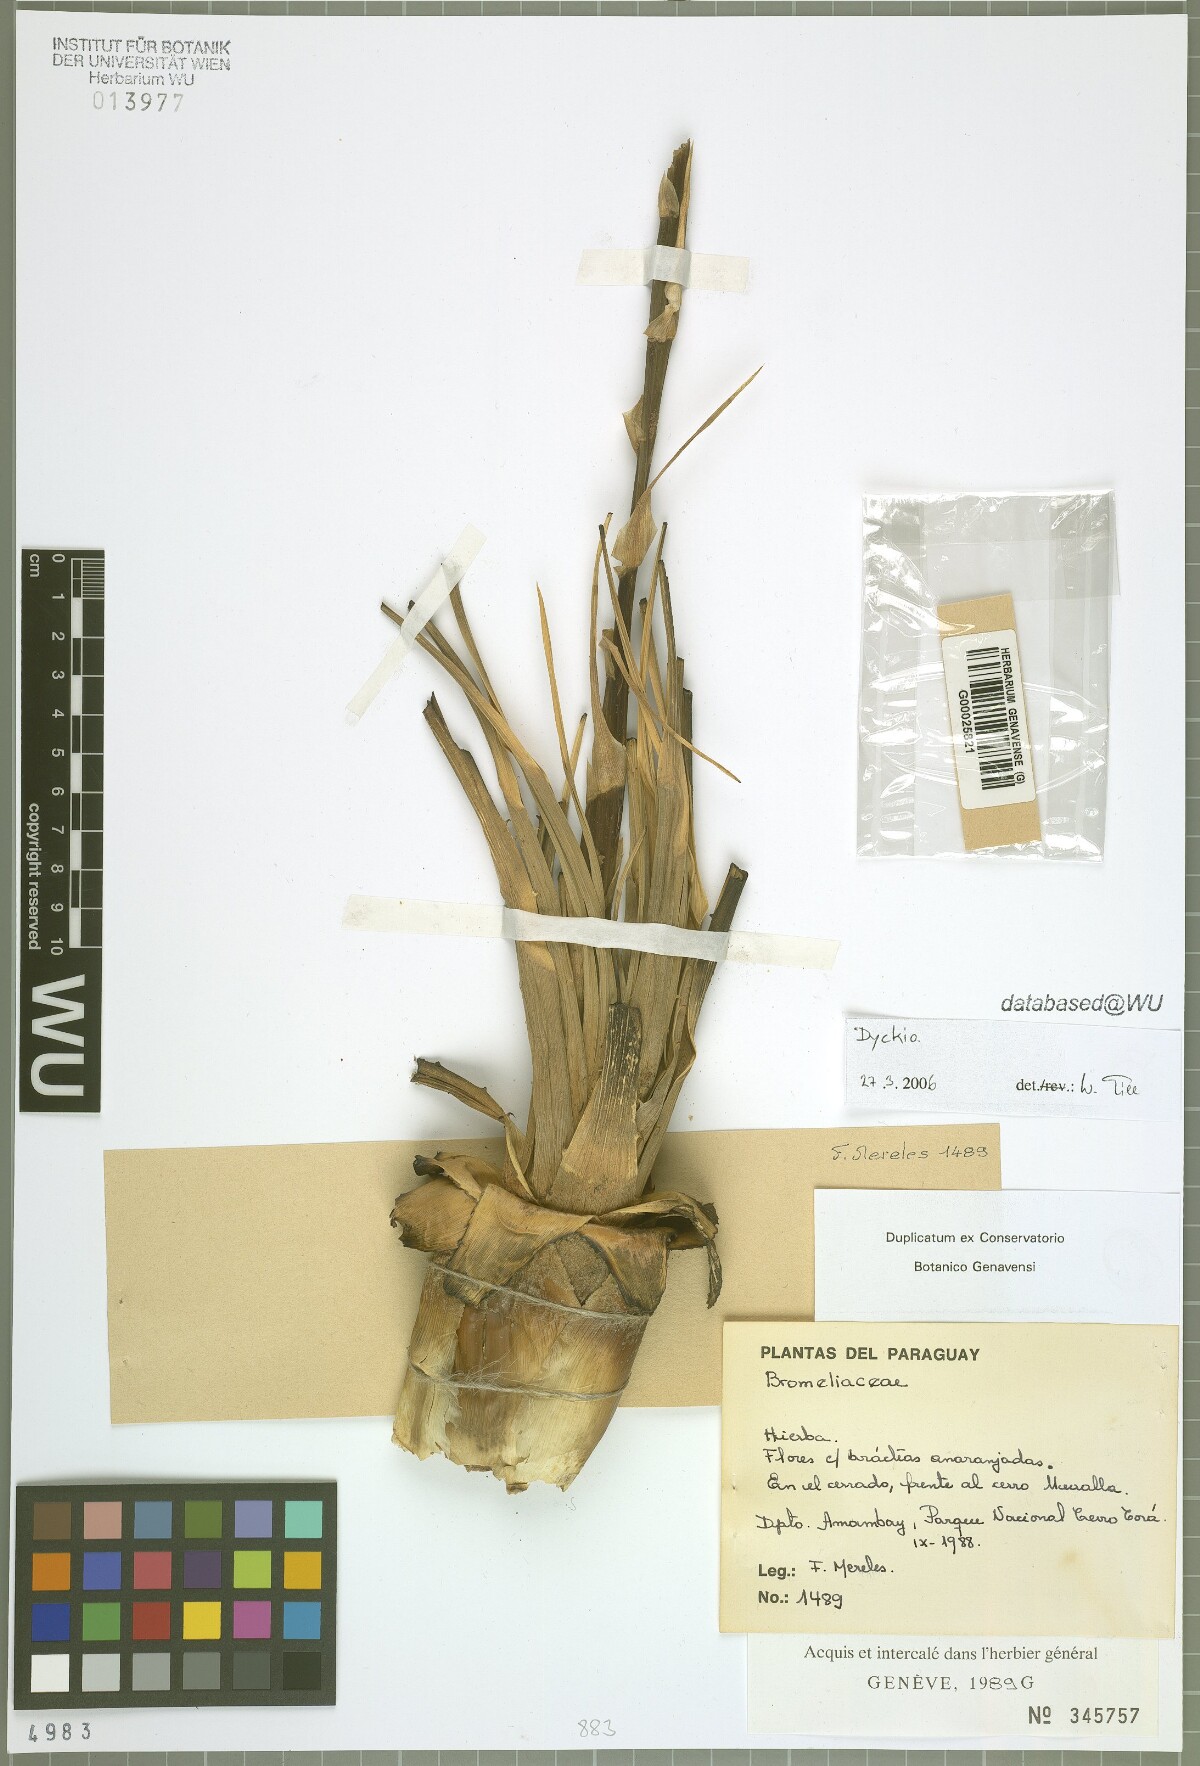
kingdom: Plantae
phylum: Tracheophyta
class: Liliopsida
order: Poales
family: Bromeliaceae
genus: Dyckia
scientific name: Dyckia
